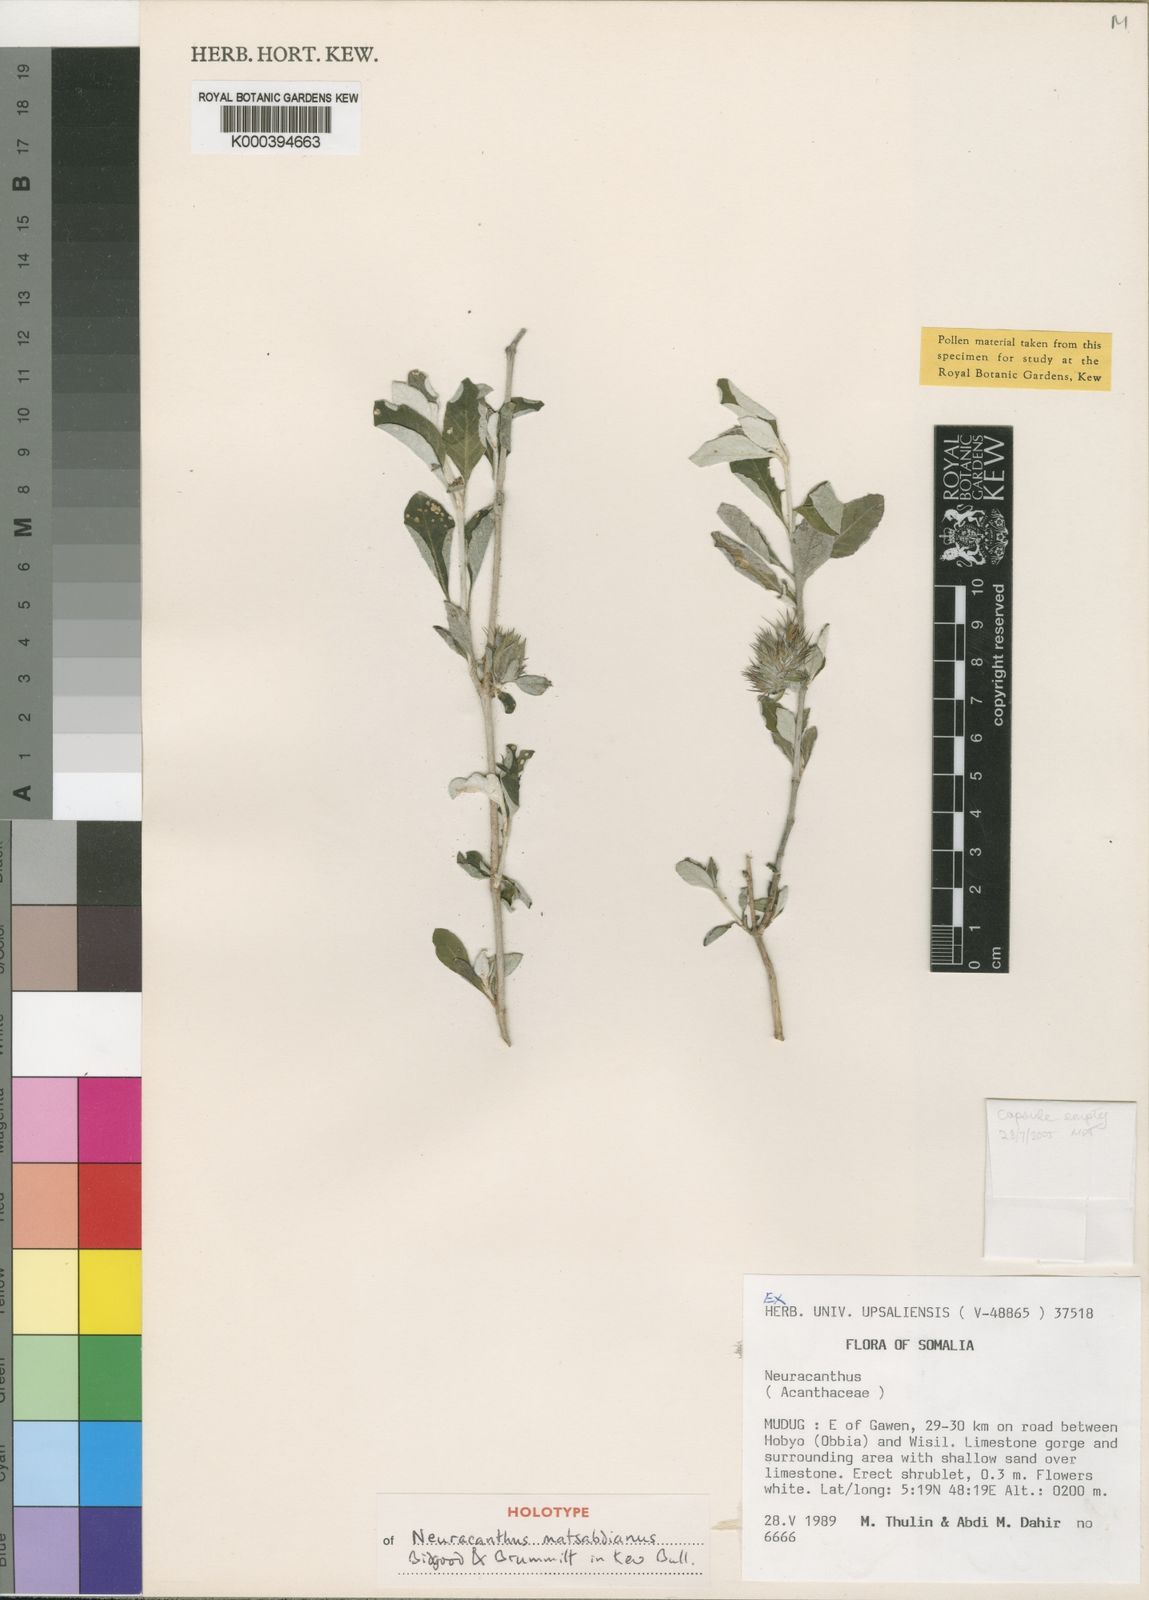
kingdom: Plantae
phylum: Tracheophyta
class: Magnoliopsida
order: Lamiales
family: Acanthaceae
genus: Neuracanthus
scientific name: Neuracanthus matsabdianus
